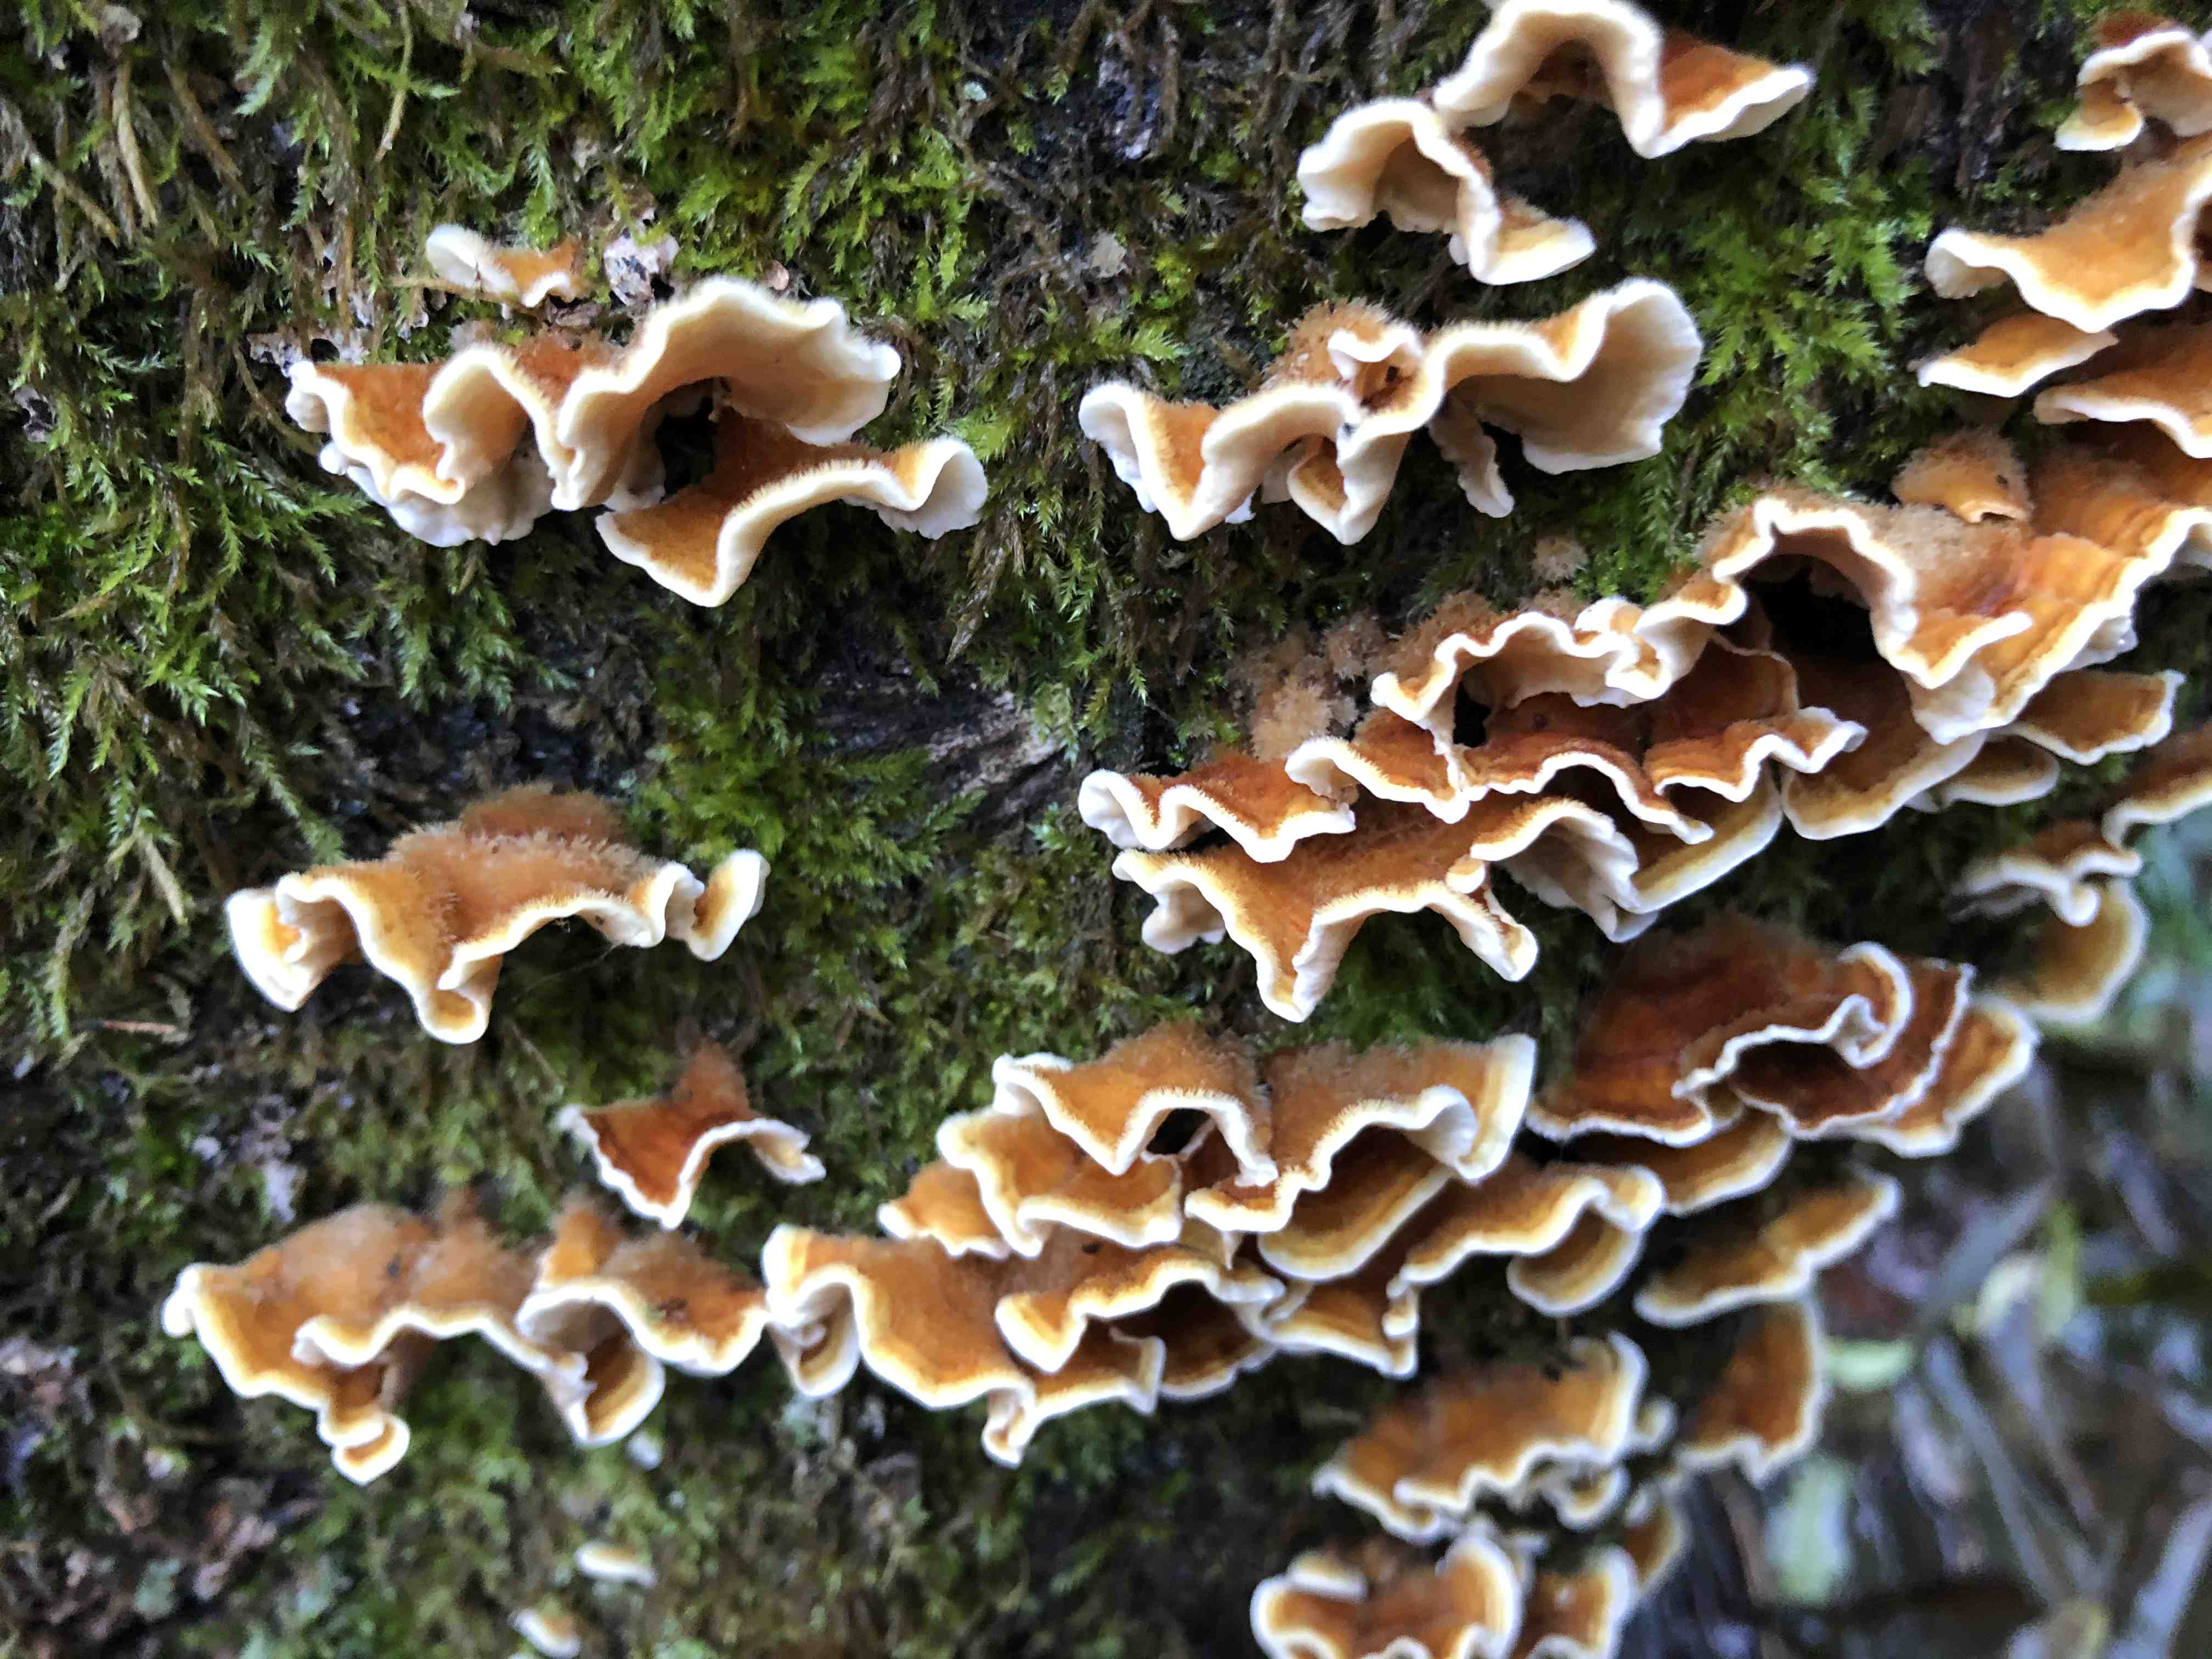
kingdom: Fungi
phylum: Basidiomycota
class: Agaricomycetes
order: Russulales
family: Stereaceae
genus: Stereum
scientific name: Stereum hirsutum
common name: håret lædersvamp
